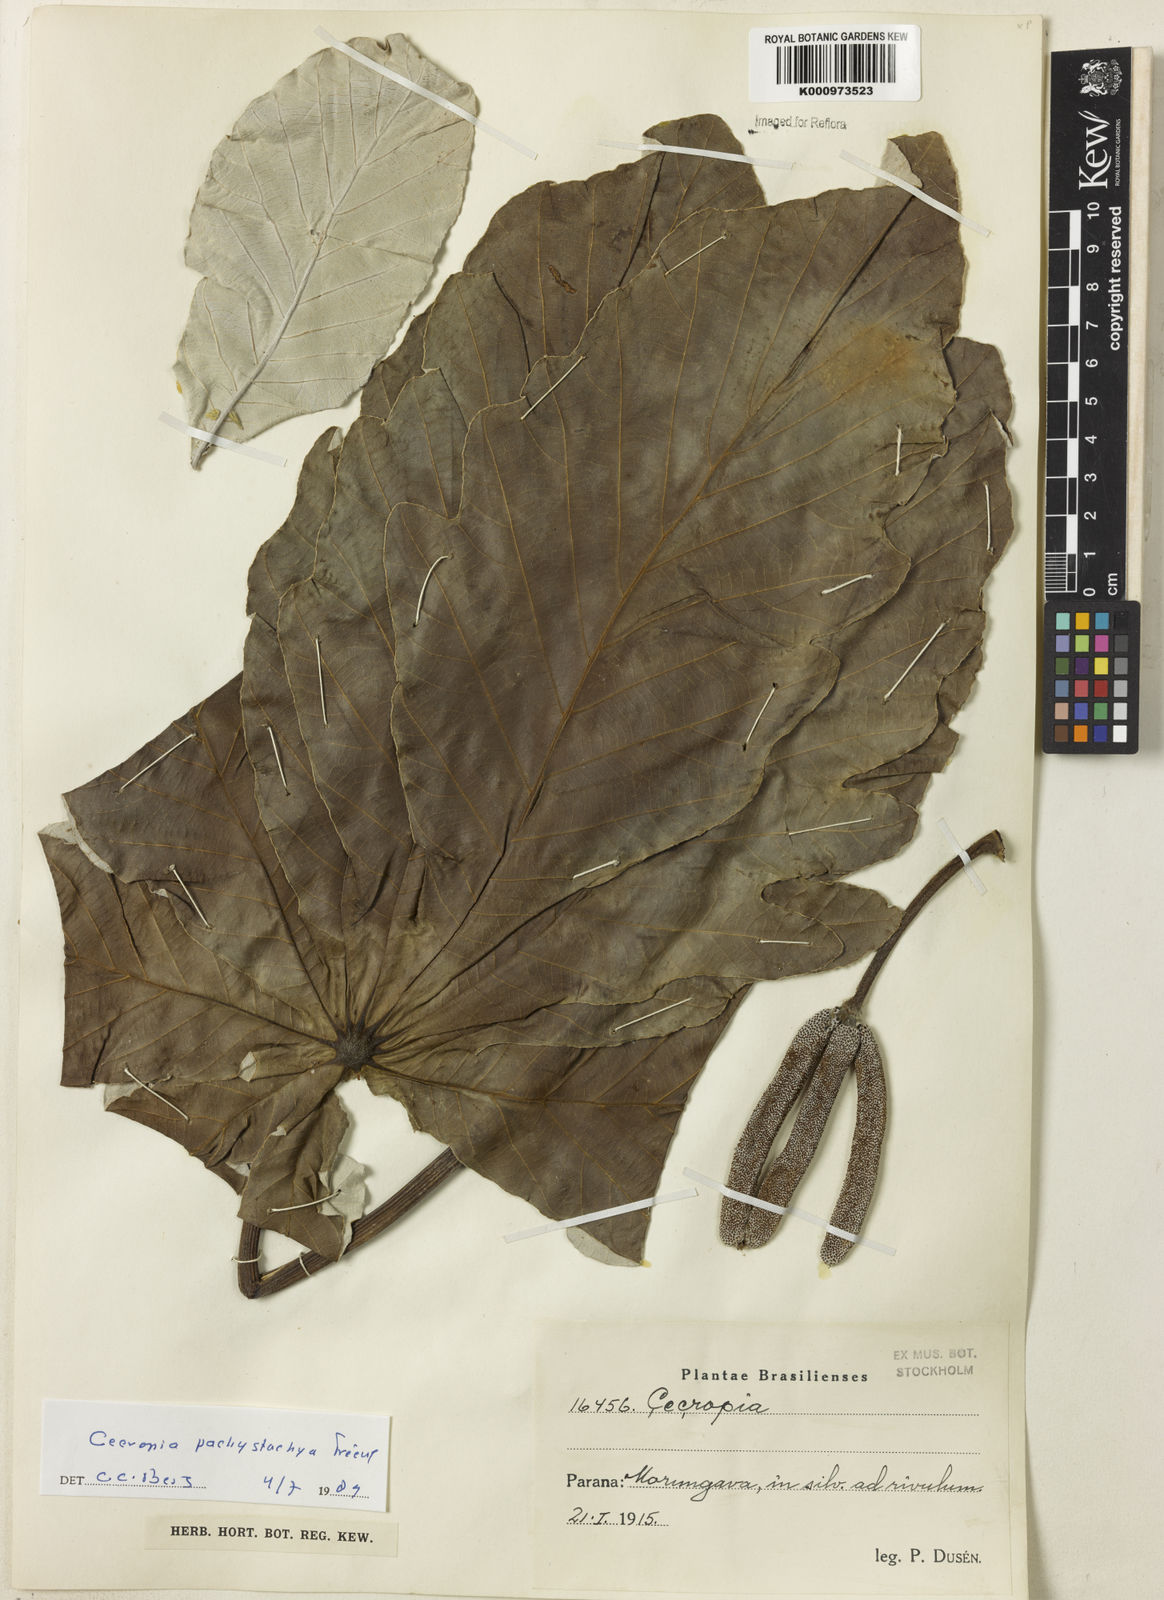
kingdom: Plantae
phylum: Tracheophyta
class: Magnoliopsida
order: Rosales
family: Urticaceae
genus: Cecropia
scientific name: Cecropia
